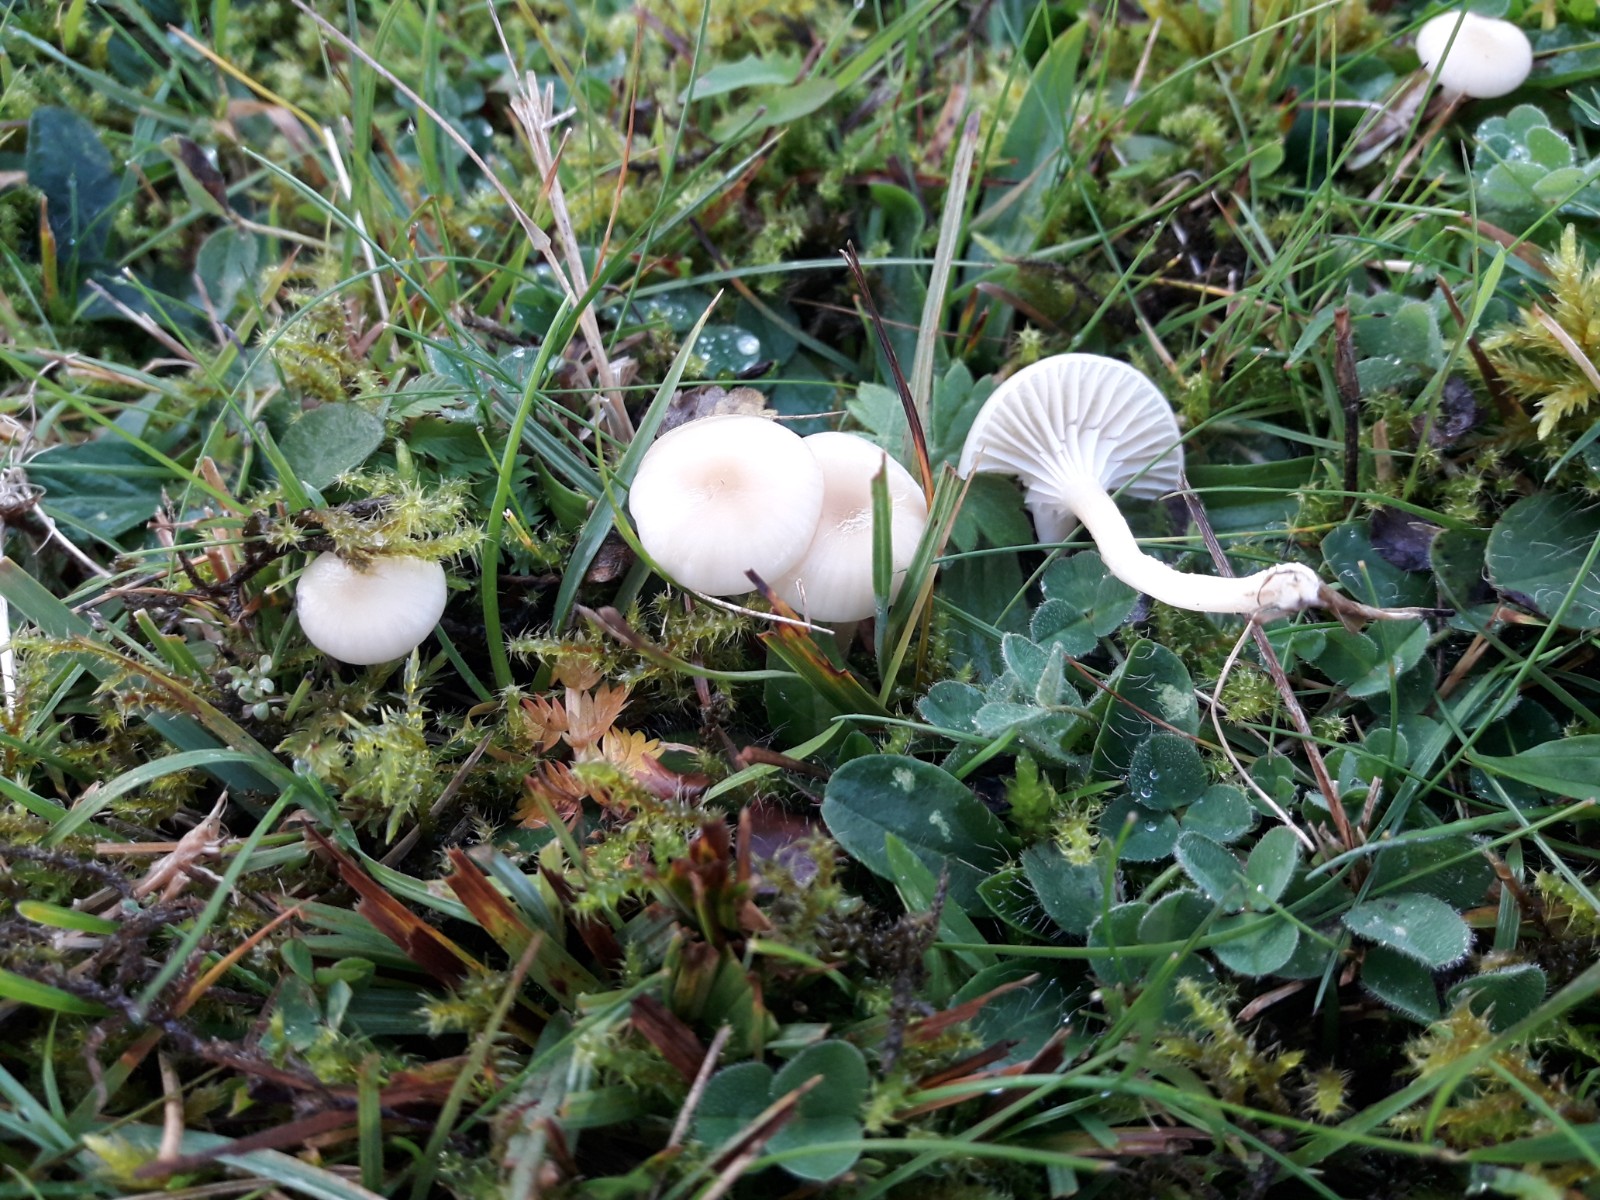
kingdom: Fungi
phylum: Basidiomycota
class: Agaricomycetes
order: Agaricales
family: Hygrophoraceae
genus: Cuphophyllus
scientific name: Cuphophyllus russocoriaceus
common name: ruslæder-vokshat
